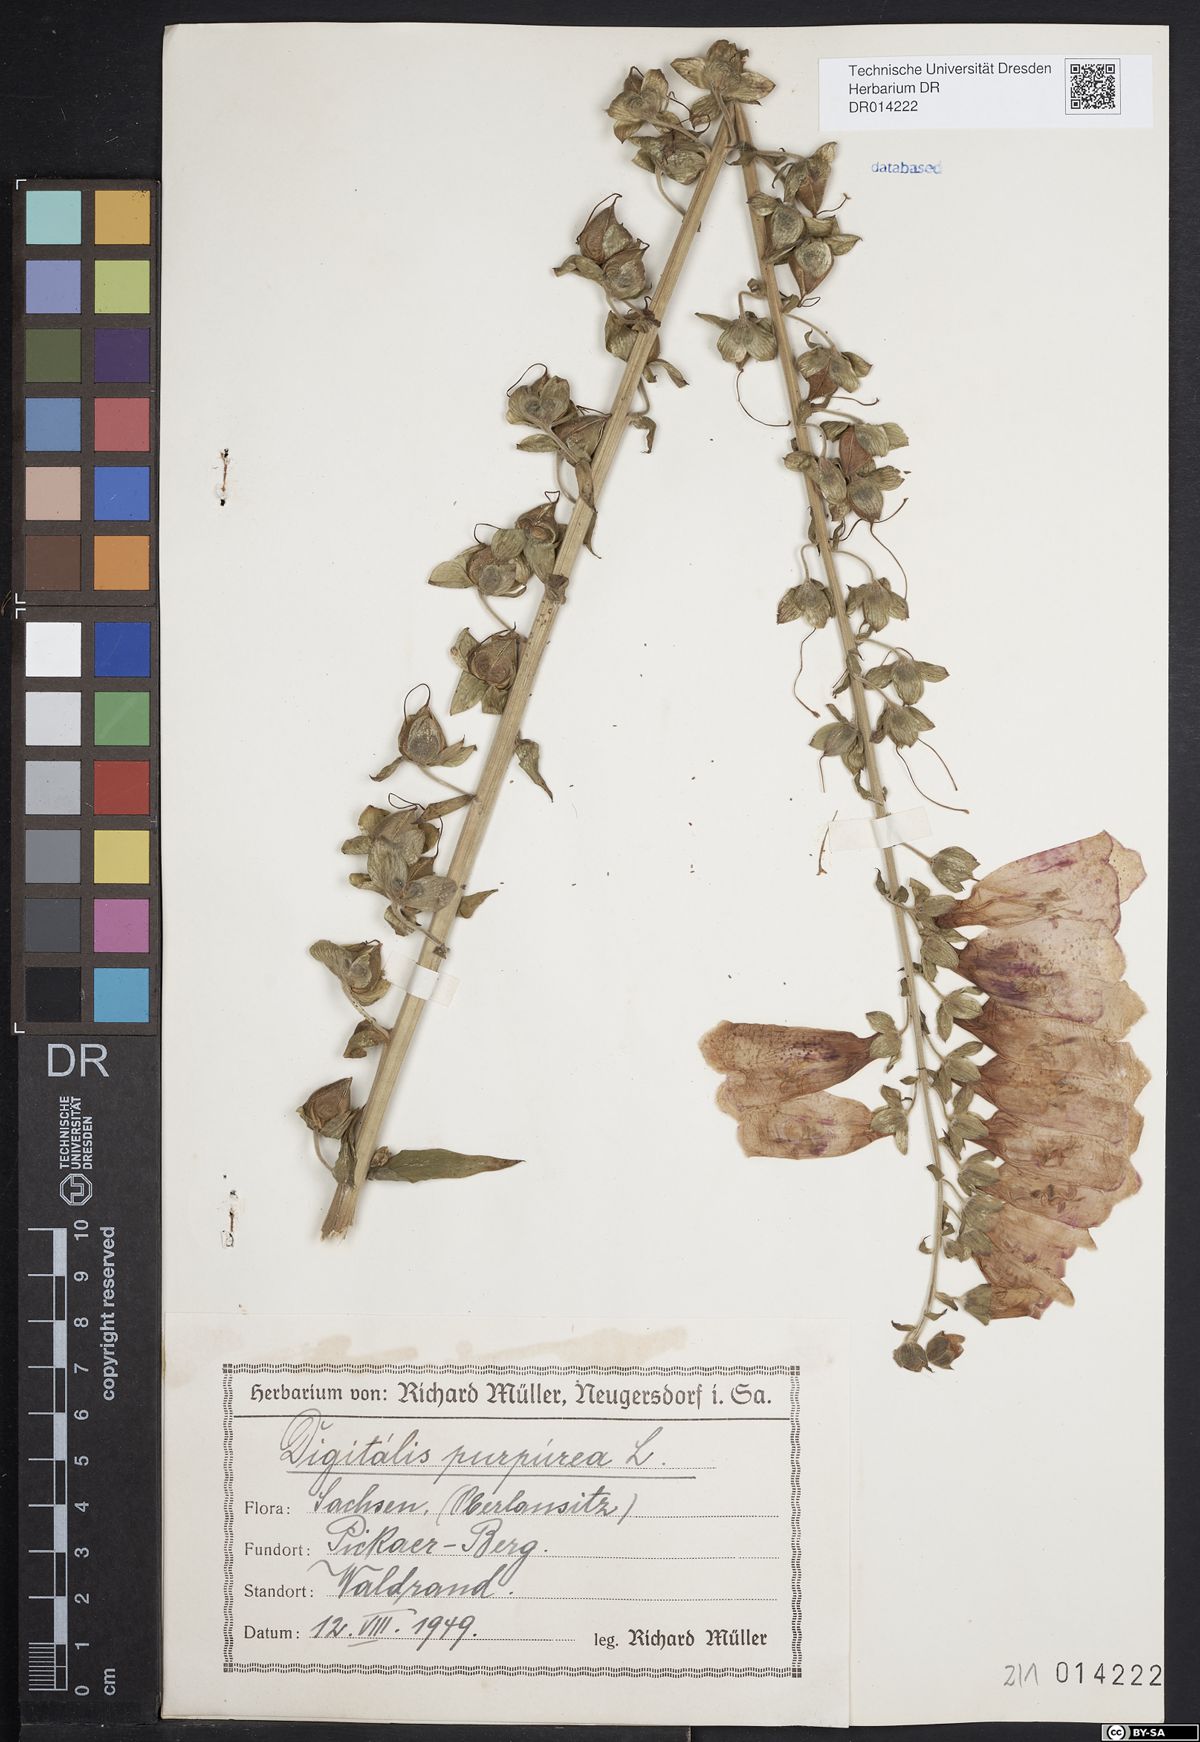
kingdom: Plantae
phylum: Tracheophyta
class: Magnoliopsida
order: Lamiales
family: Plantaginaceae
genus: Digitalis
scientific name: Digitalis purpurea
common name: Foxglove
